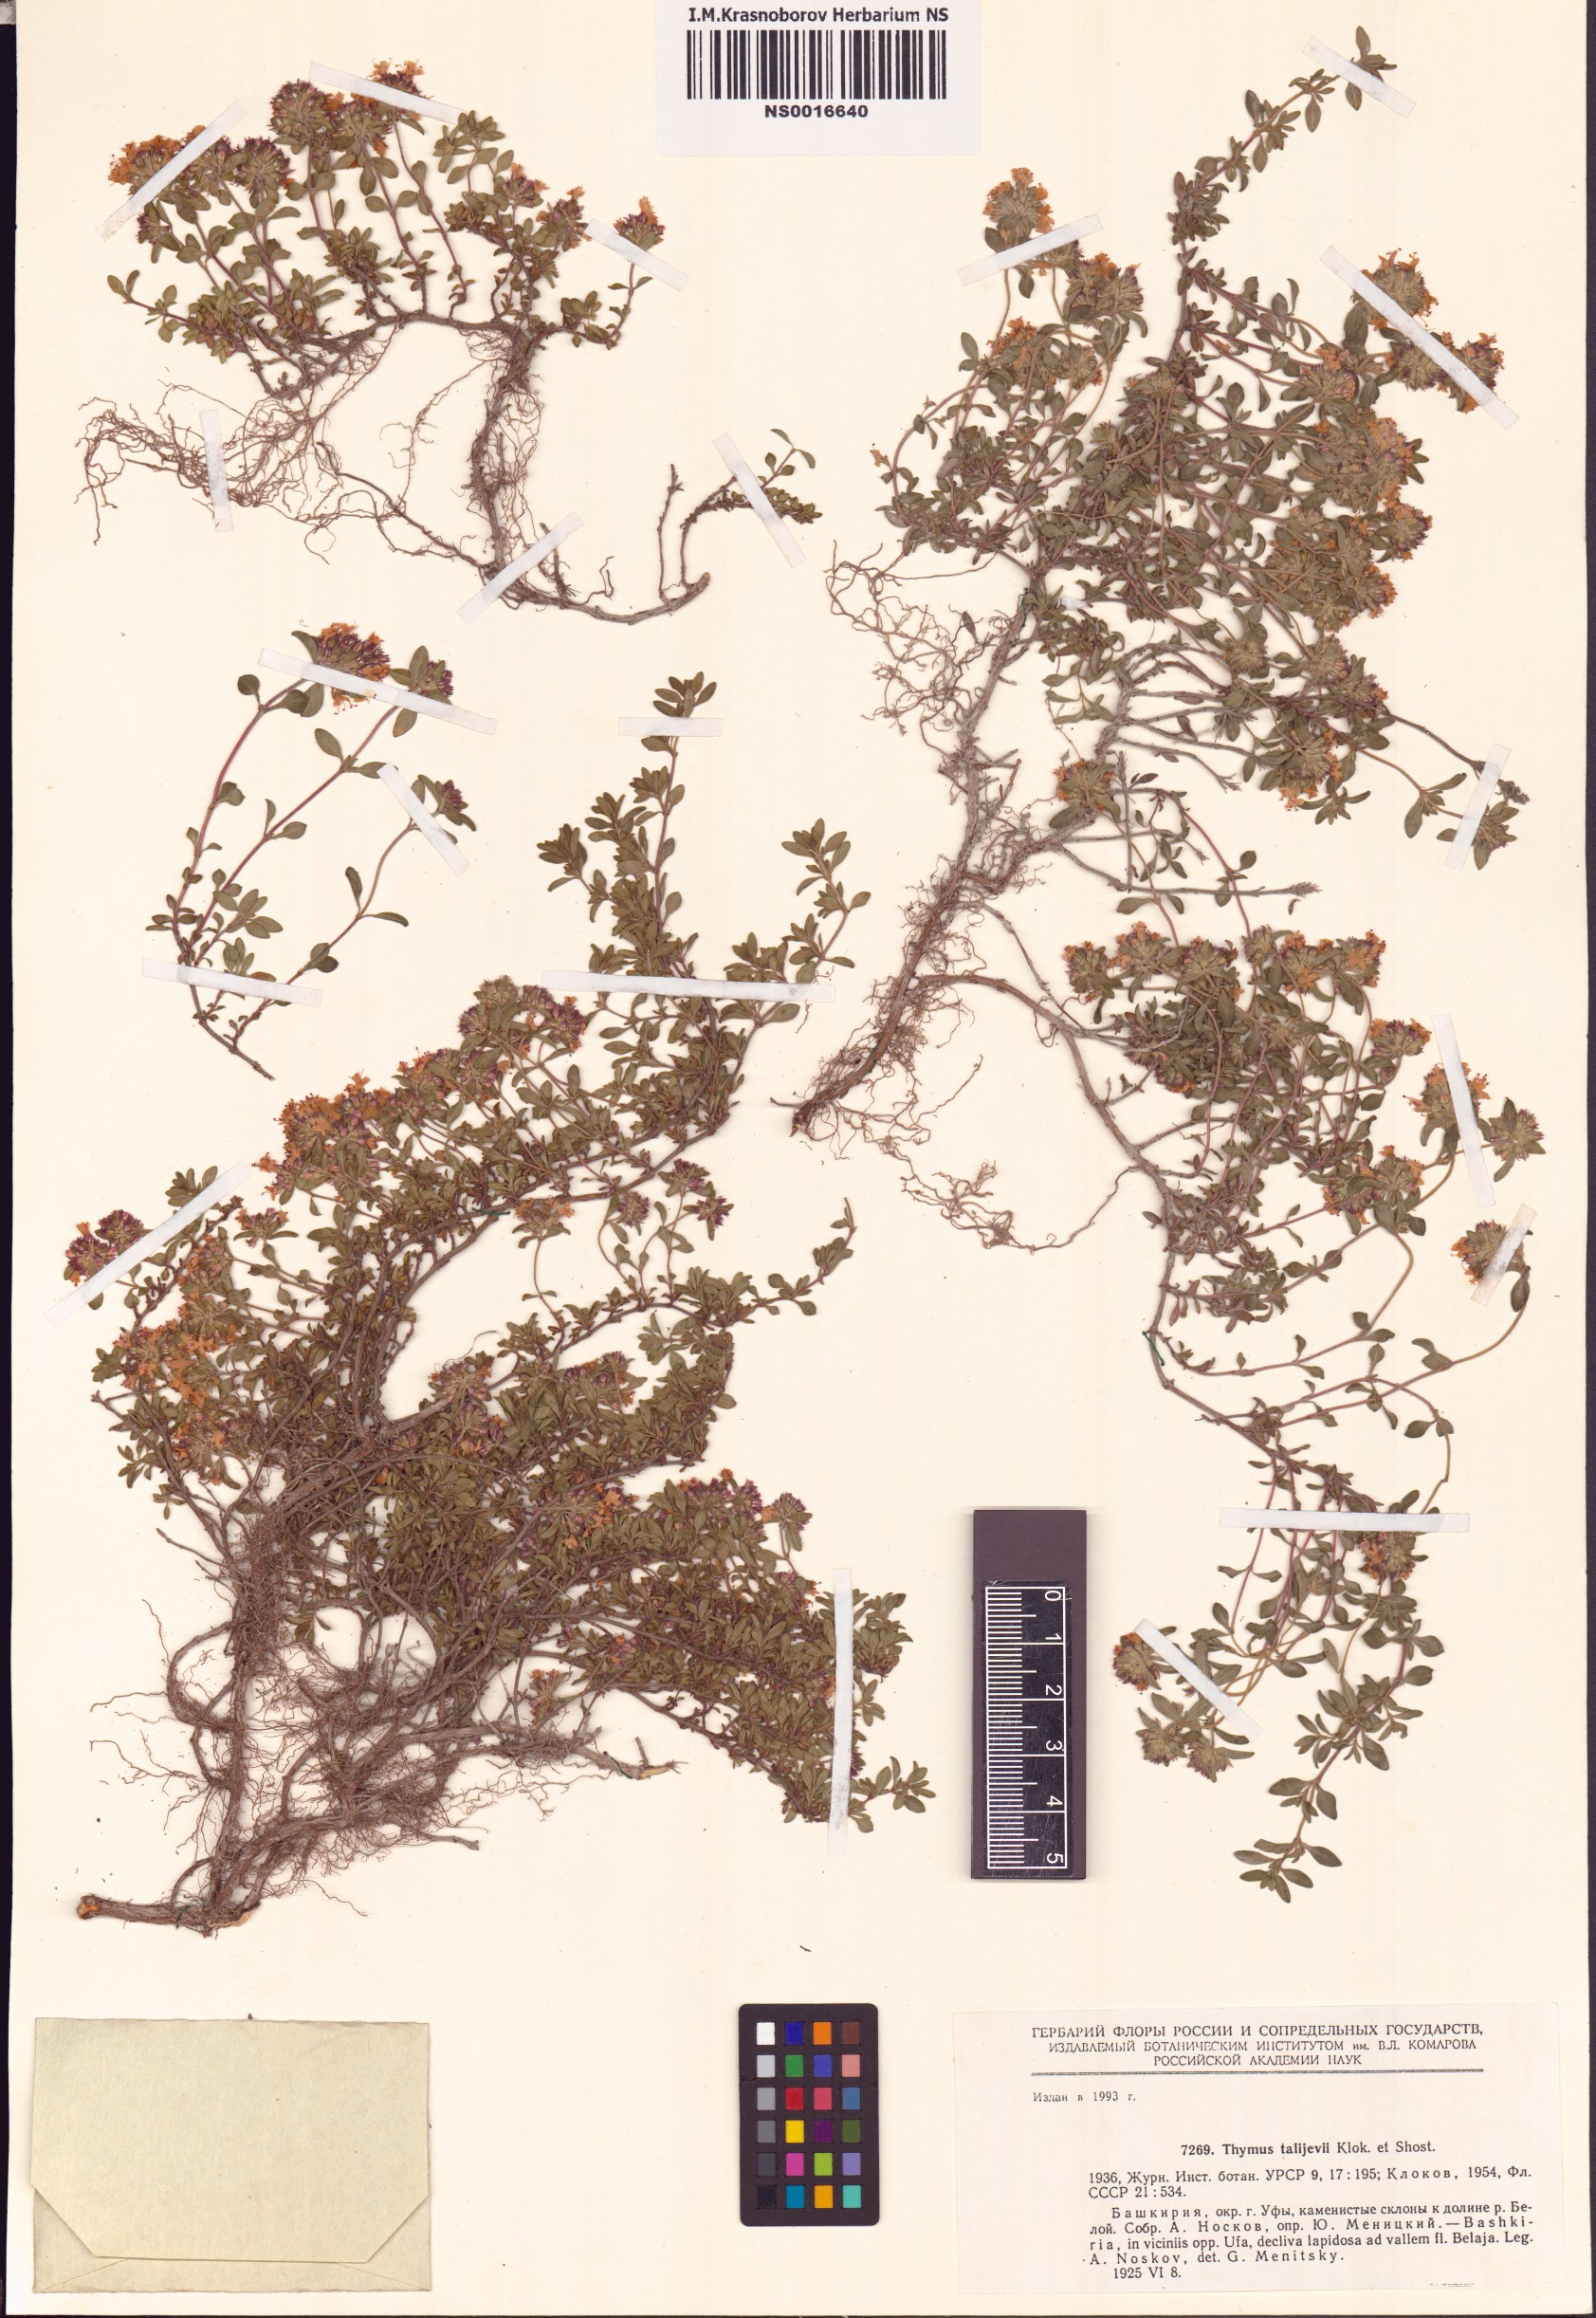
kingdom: Plantae
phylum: Tracheophyta
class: Magnoliopsida
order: Lamiales
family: Lamiaceae
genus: Thymus
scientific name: Thymus talijevii
